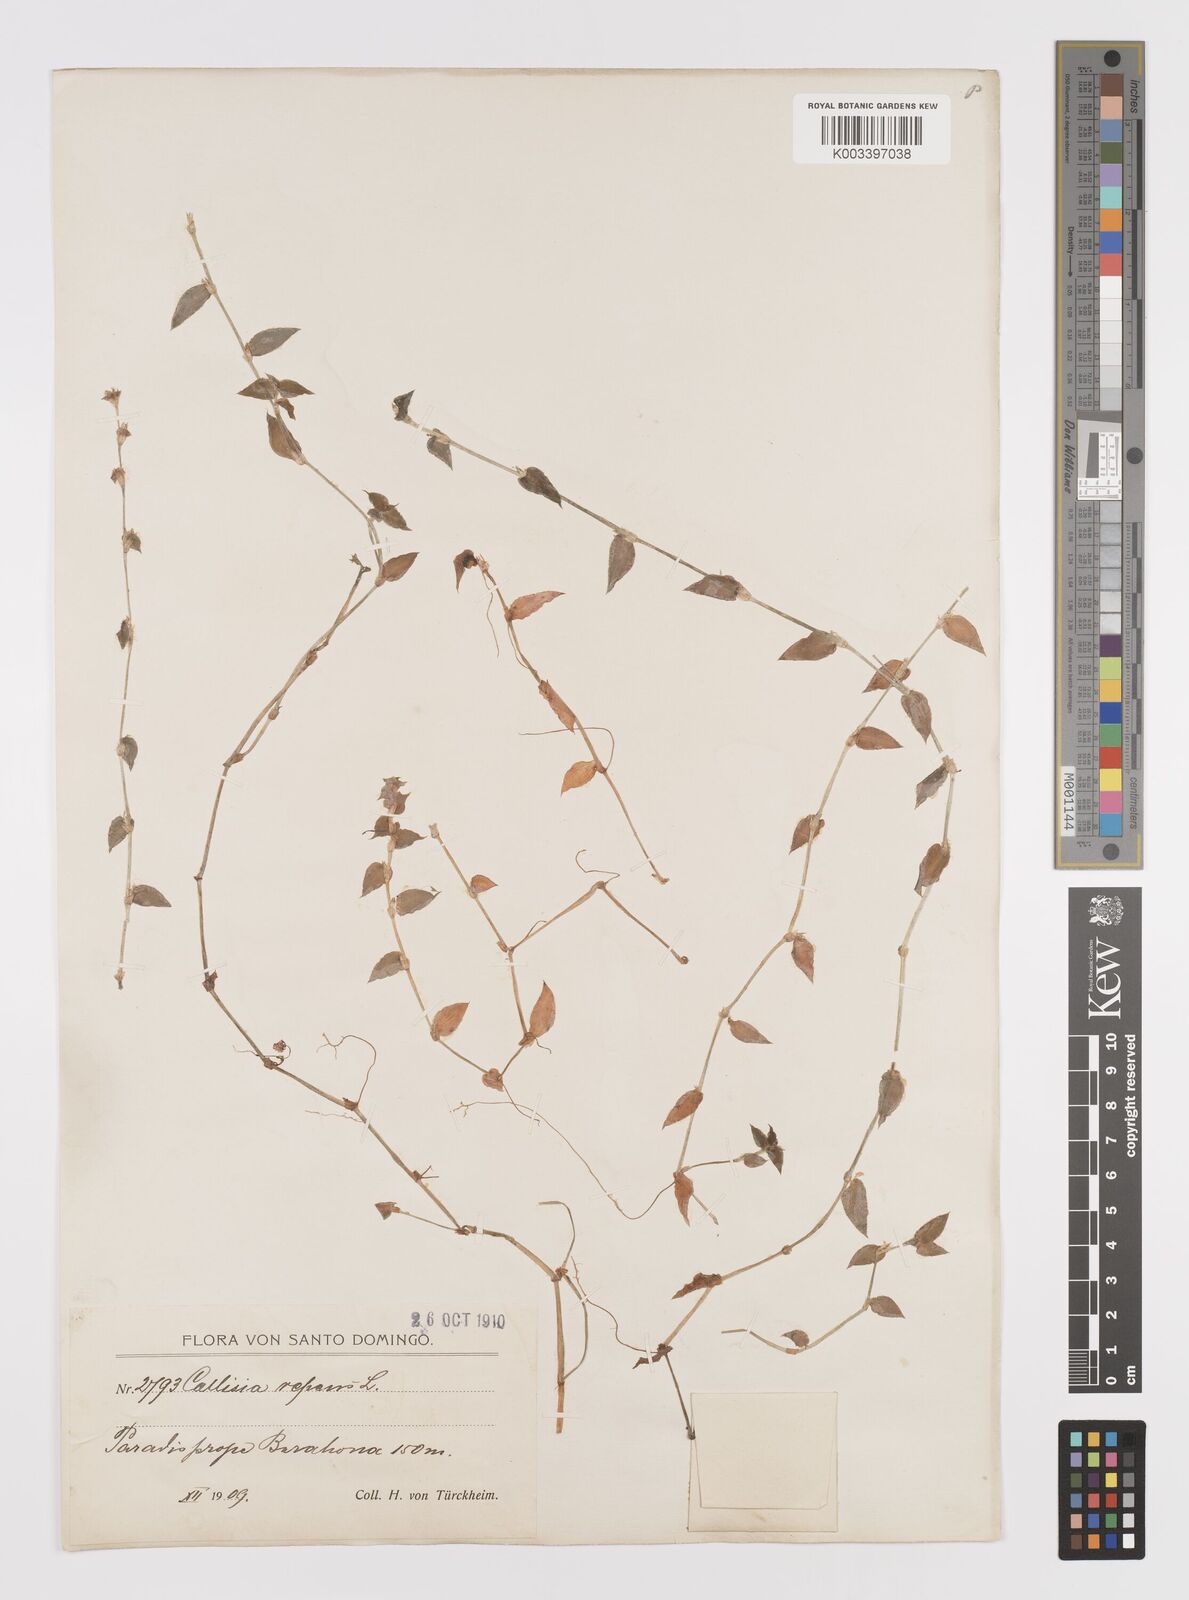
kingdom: Plantae
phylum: Tracheophyta
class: Liliopsida
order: Commelinales
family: Commelinaceae
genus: Callisia
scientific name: Callisia repens
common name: Creeping inchplant
